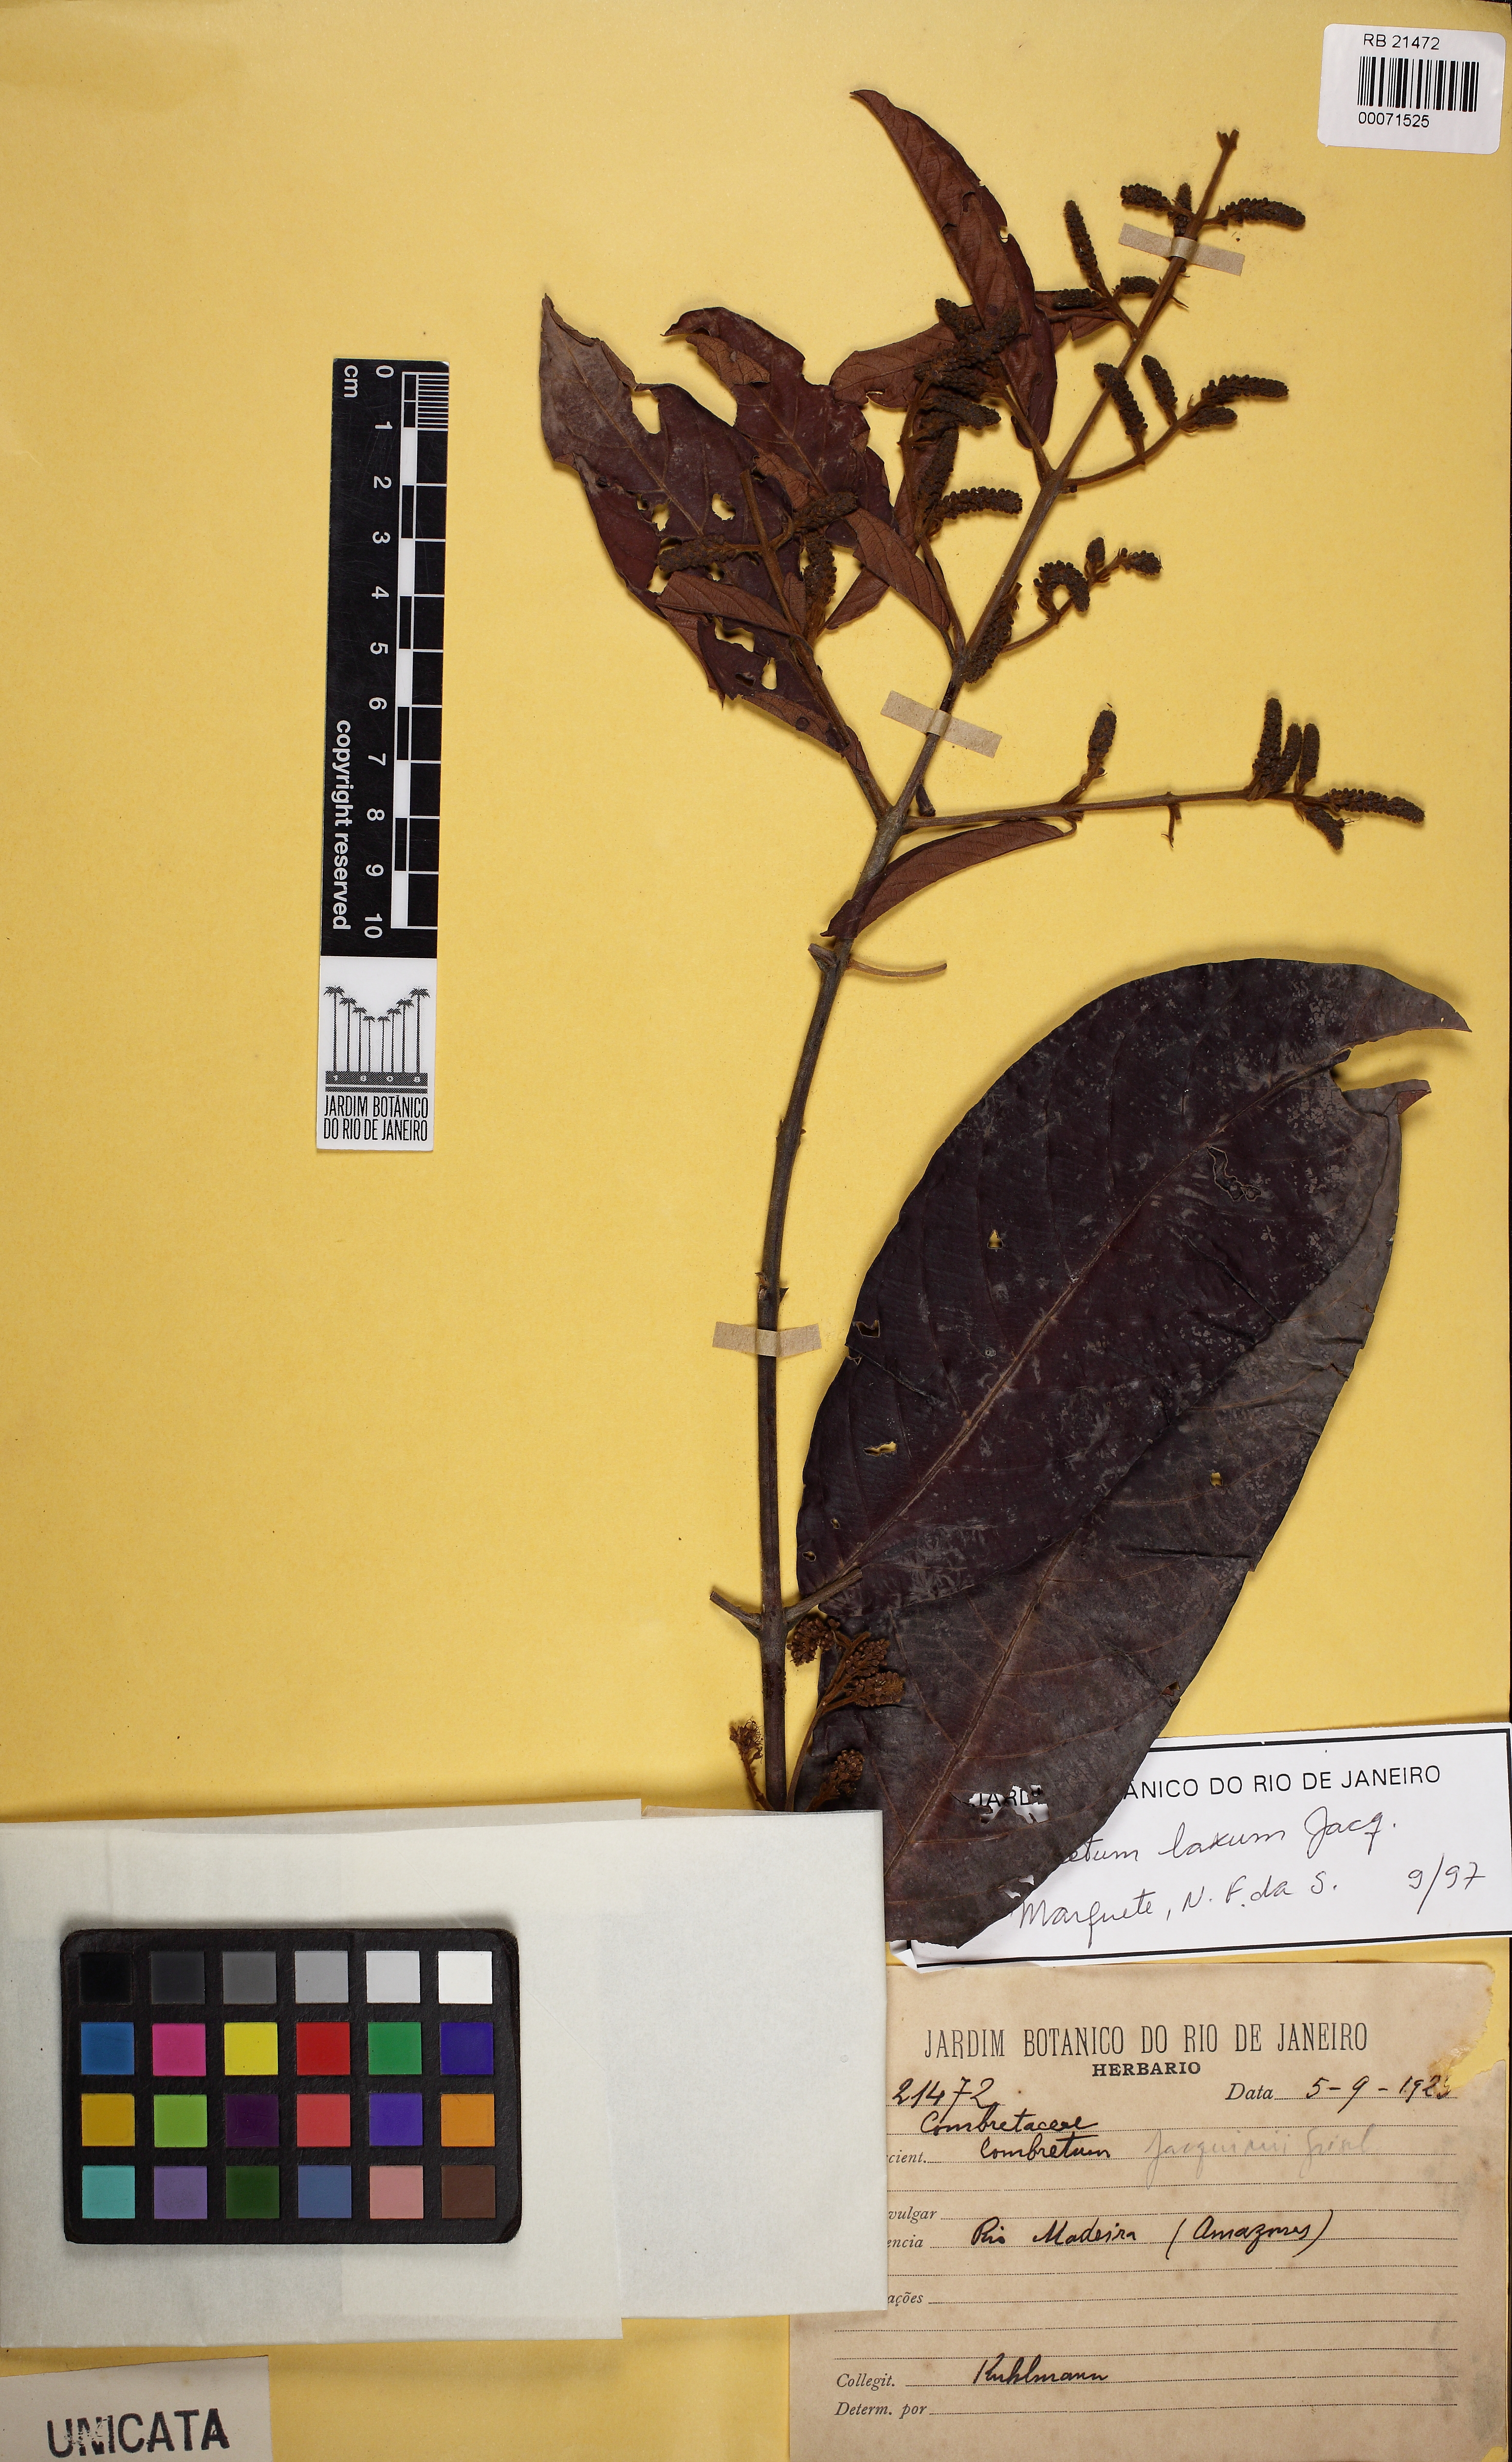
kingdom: Plantae
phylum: Tracheophyta
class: Magnoliopsida
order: Myrtales
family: Combretaceae
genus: Combretum
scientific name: Combretum laxum
